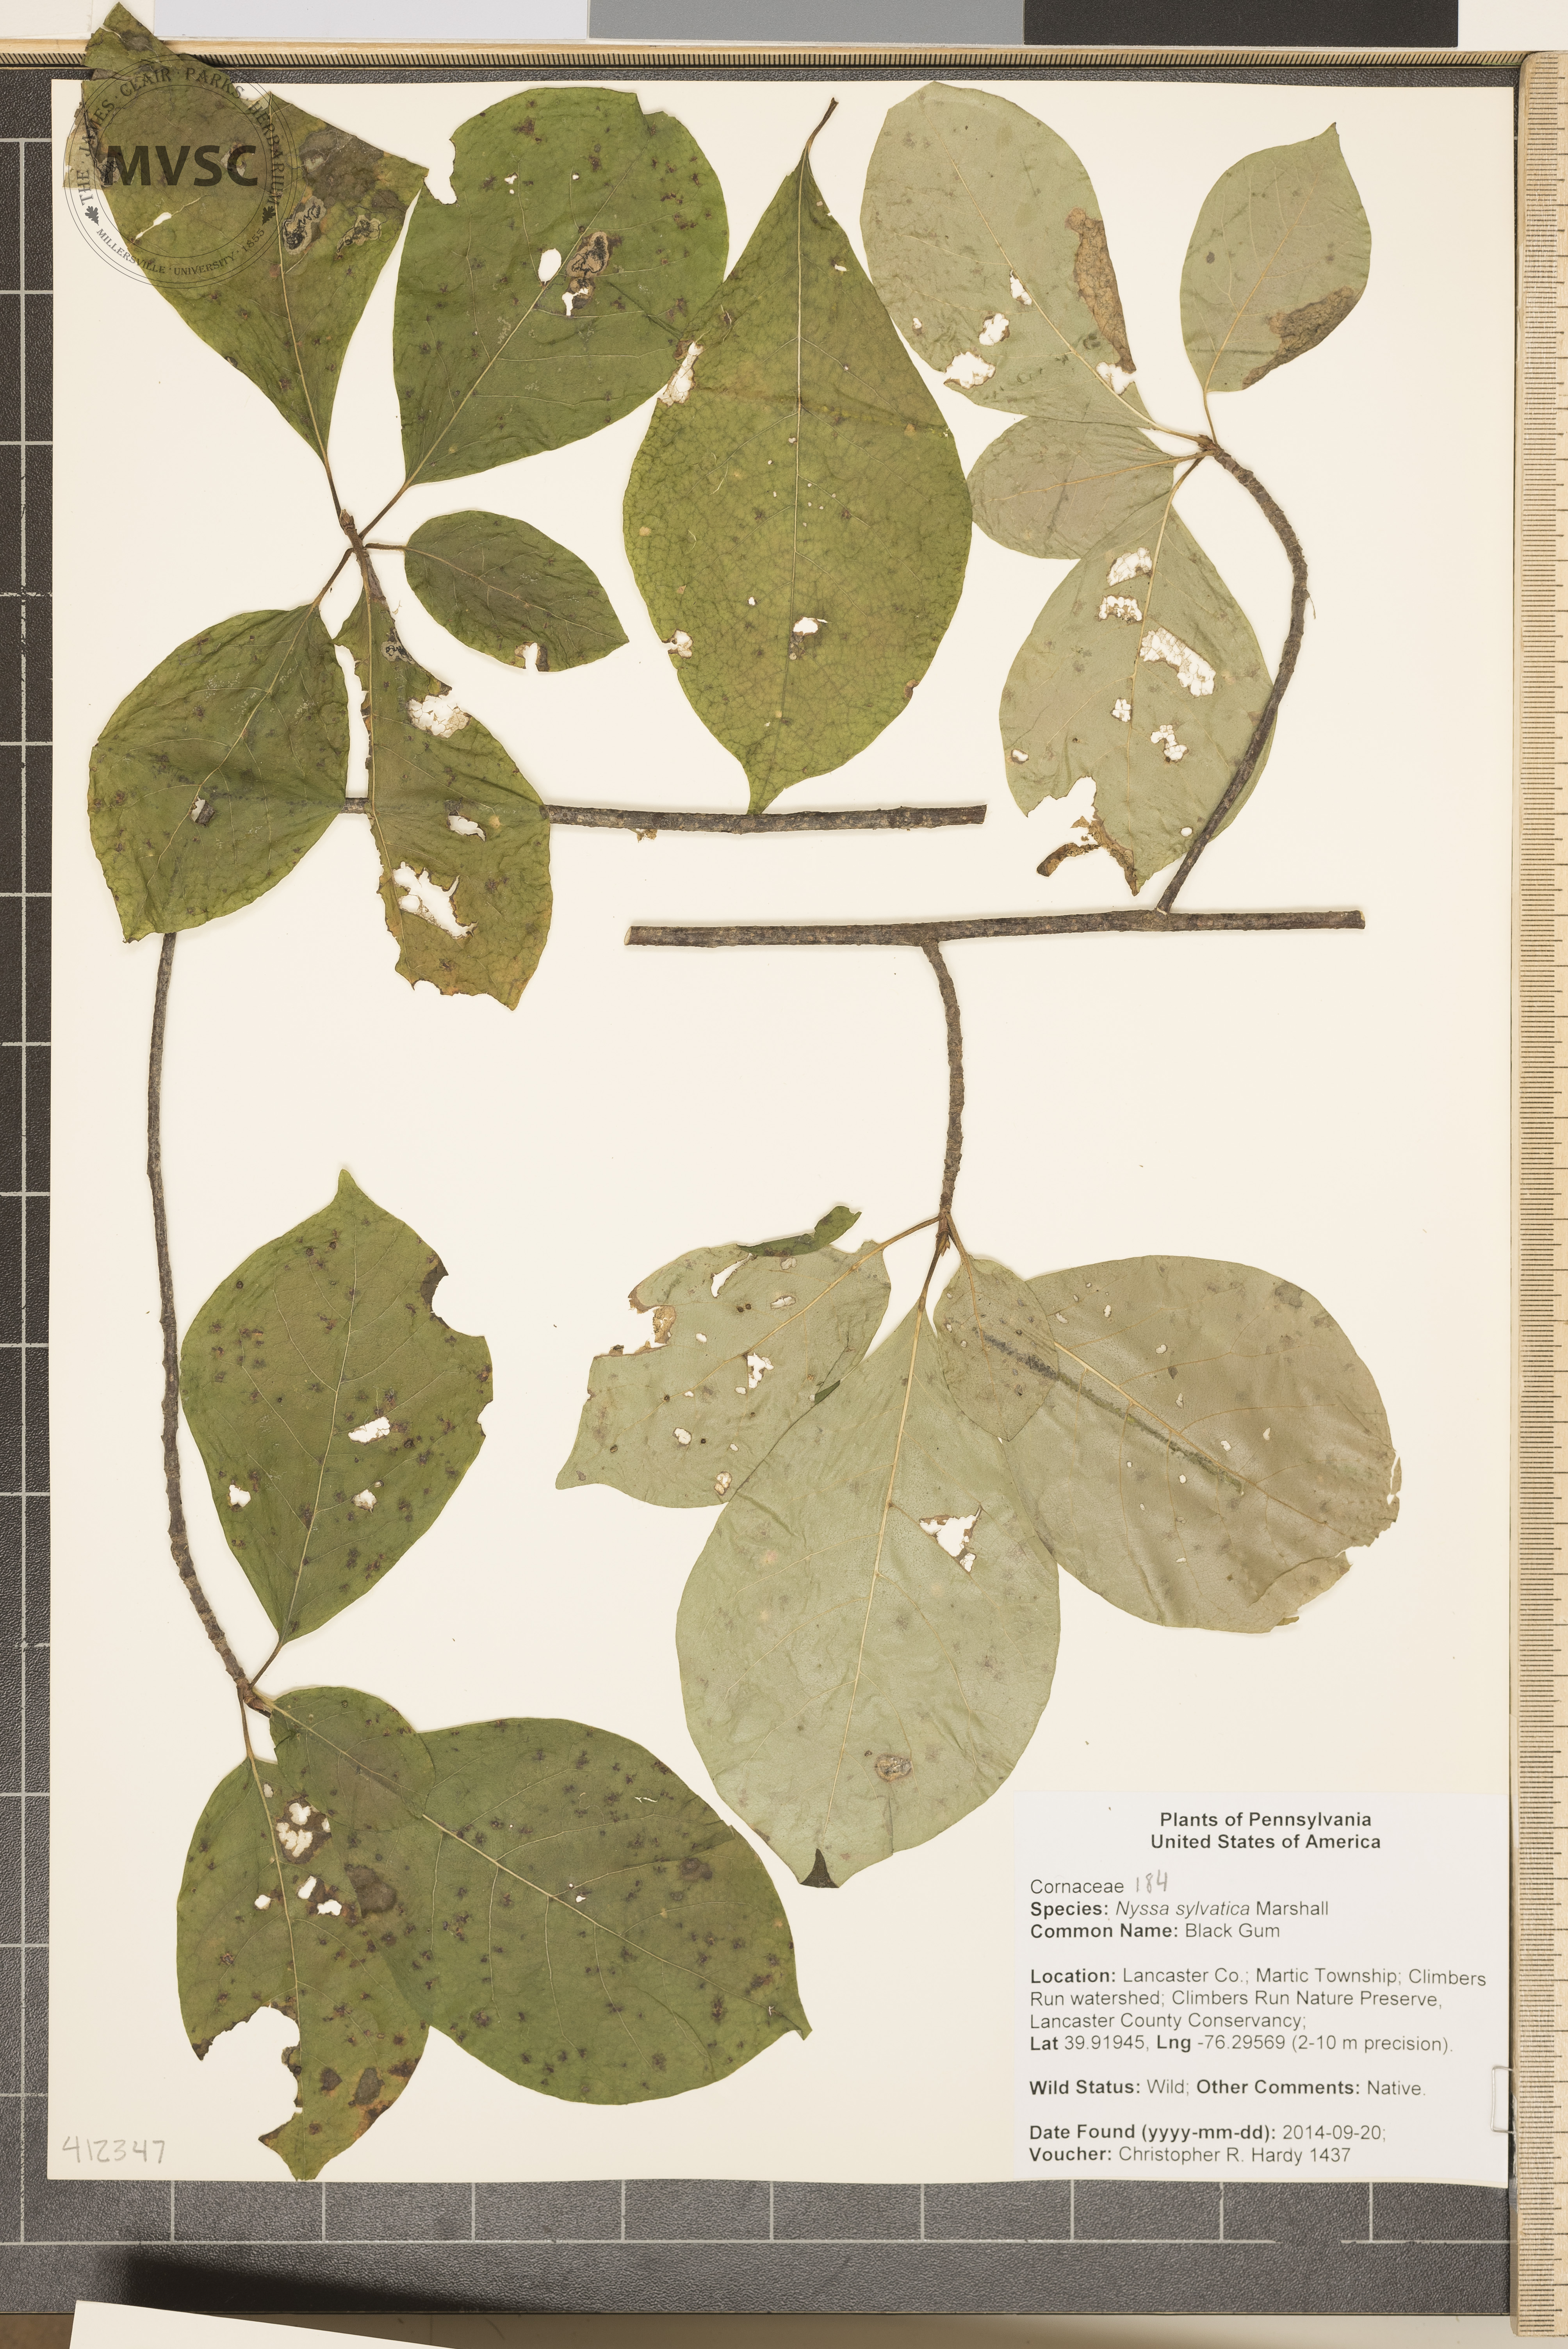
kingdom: Plantae
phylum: Tracheophyta
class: Magnoliopsida
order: Cornales
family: Nyssaceae
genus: Nyssa
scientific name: Nyssa sylvatica
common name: black gum
